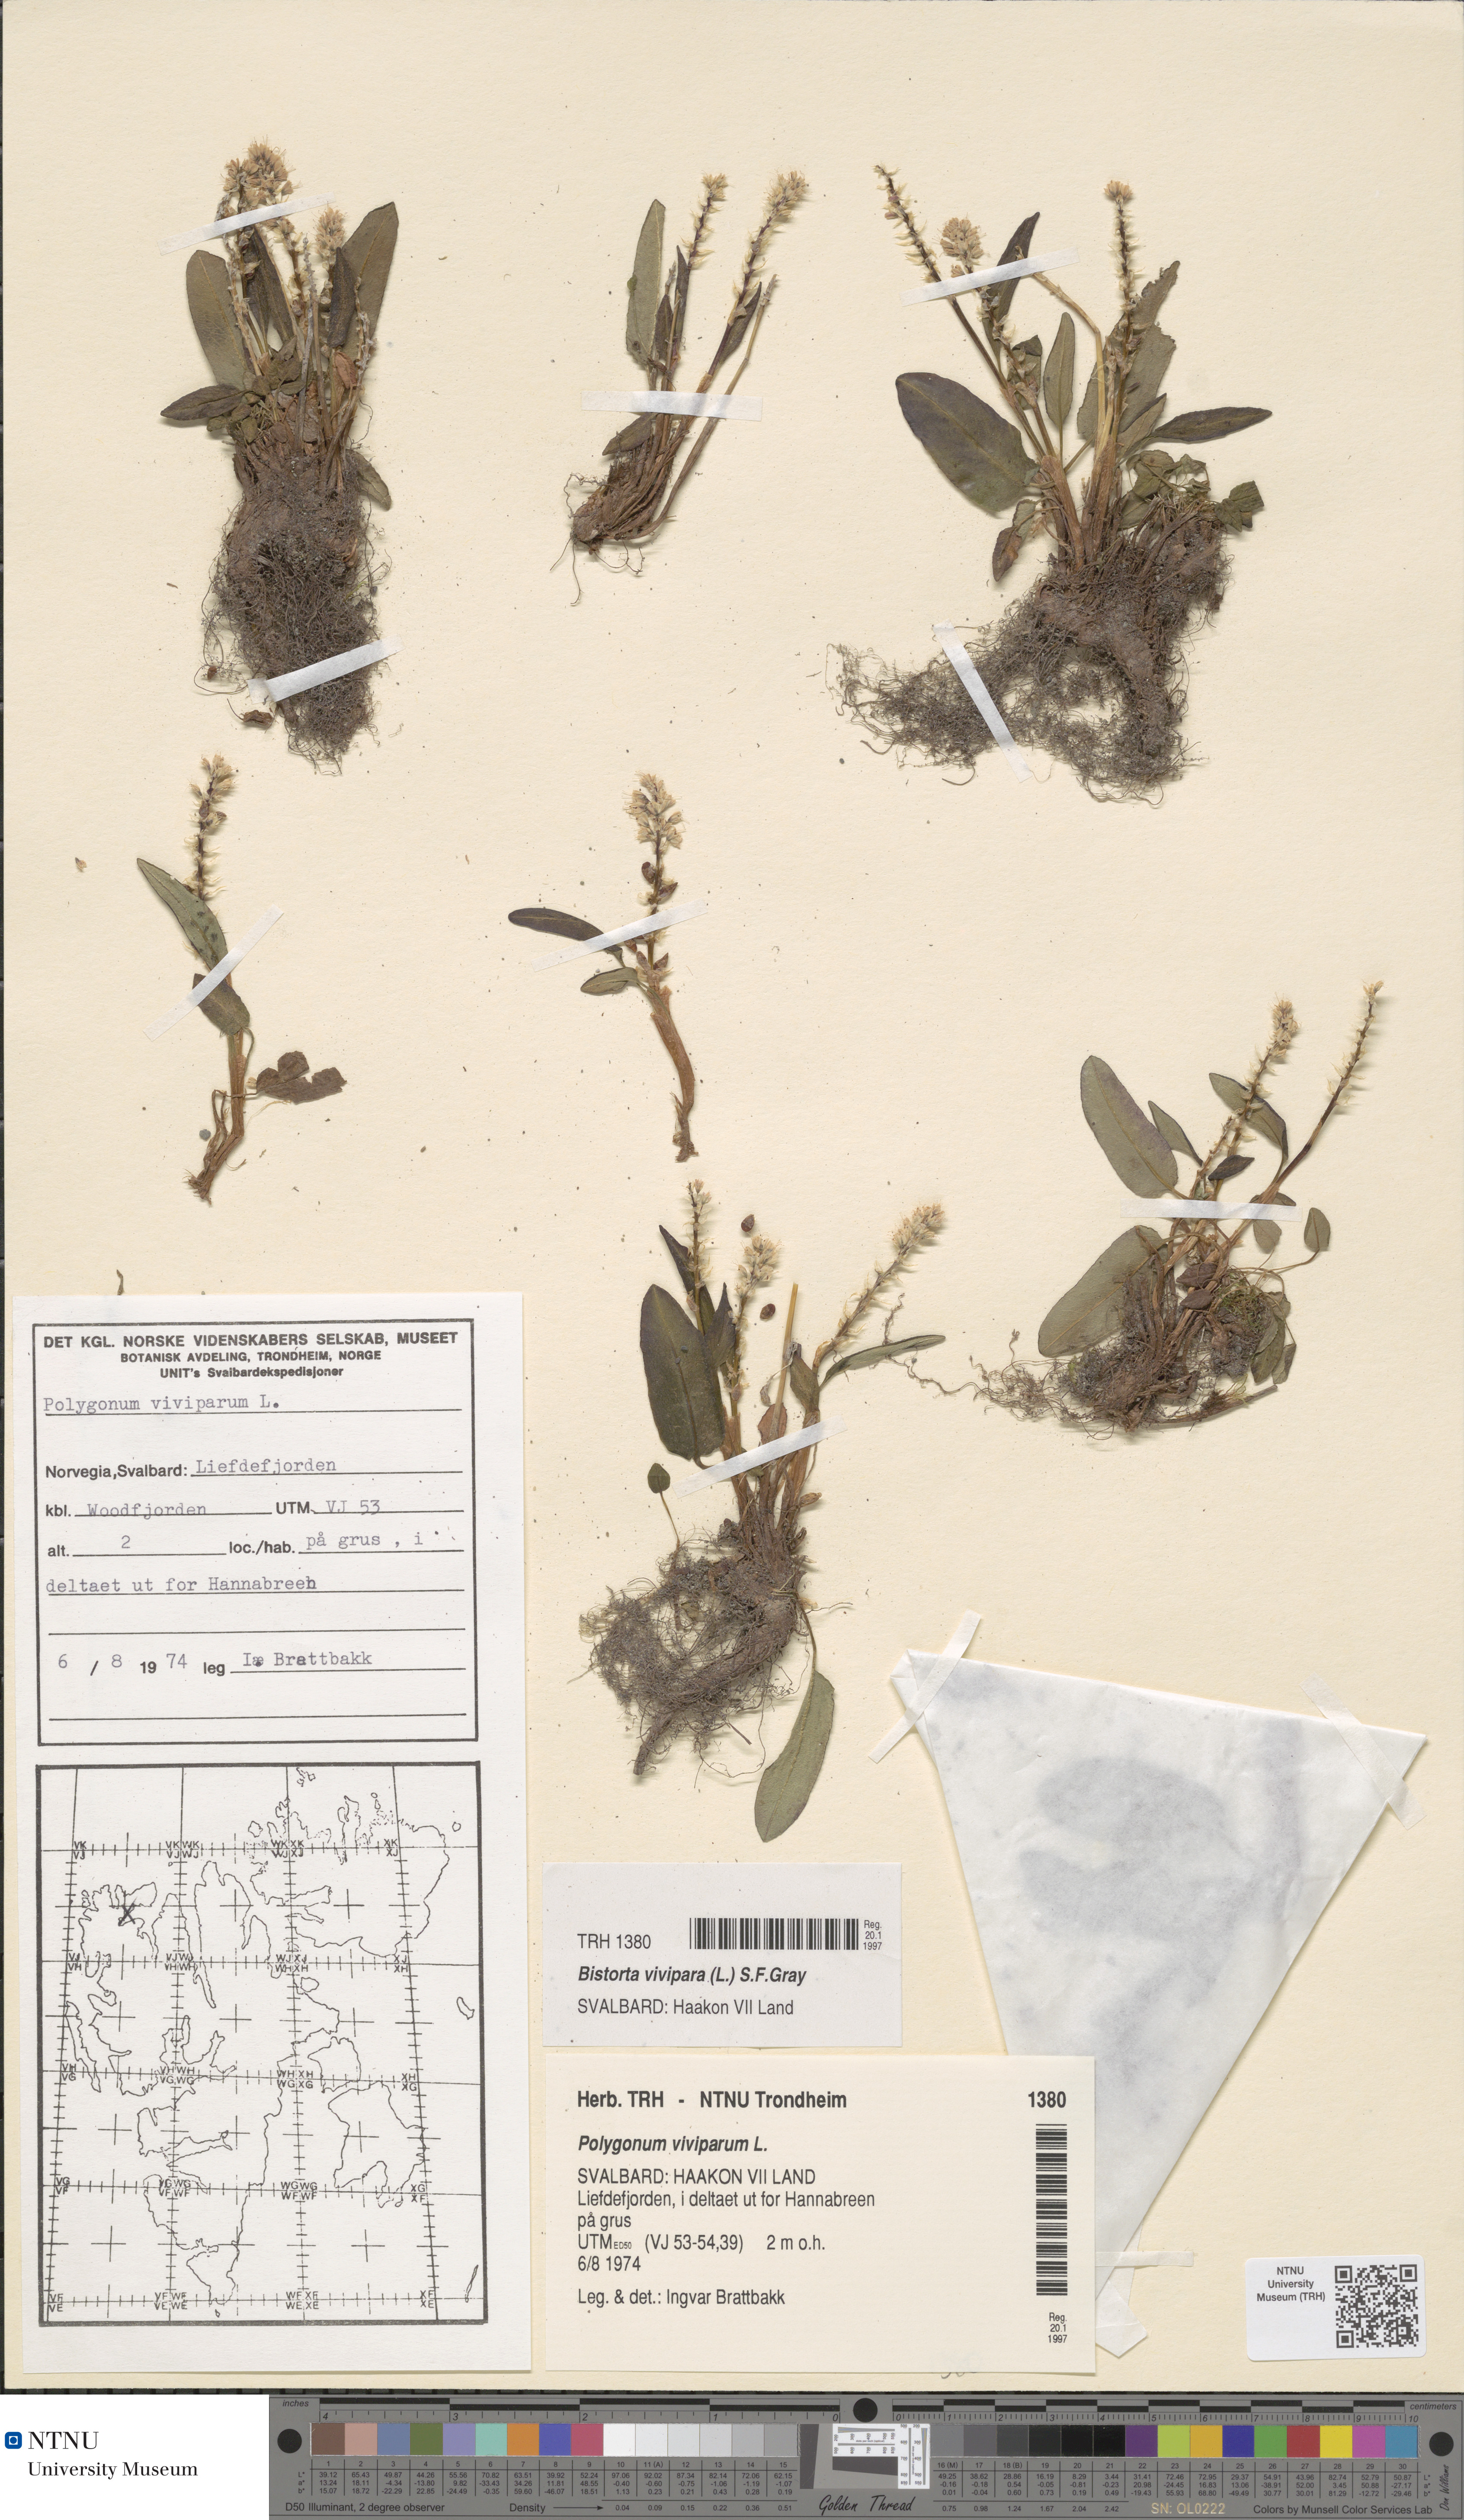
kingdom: Plantae
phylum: Tracheophyta
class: Magnoliopsida
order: Caryophyllales
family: Polygonaceae
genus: Bistorta
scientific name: Bistorta vivipara
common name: Alpine bistort
